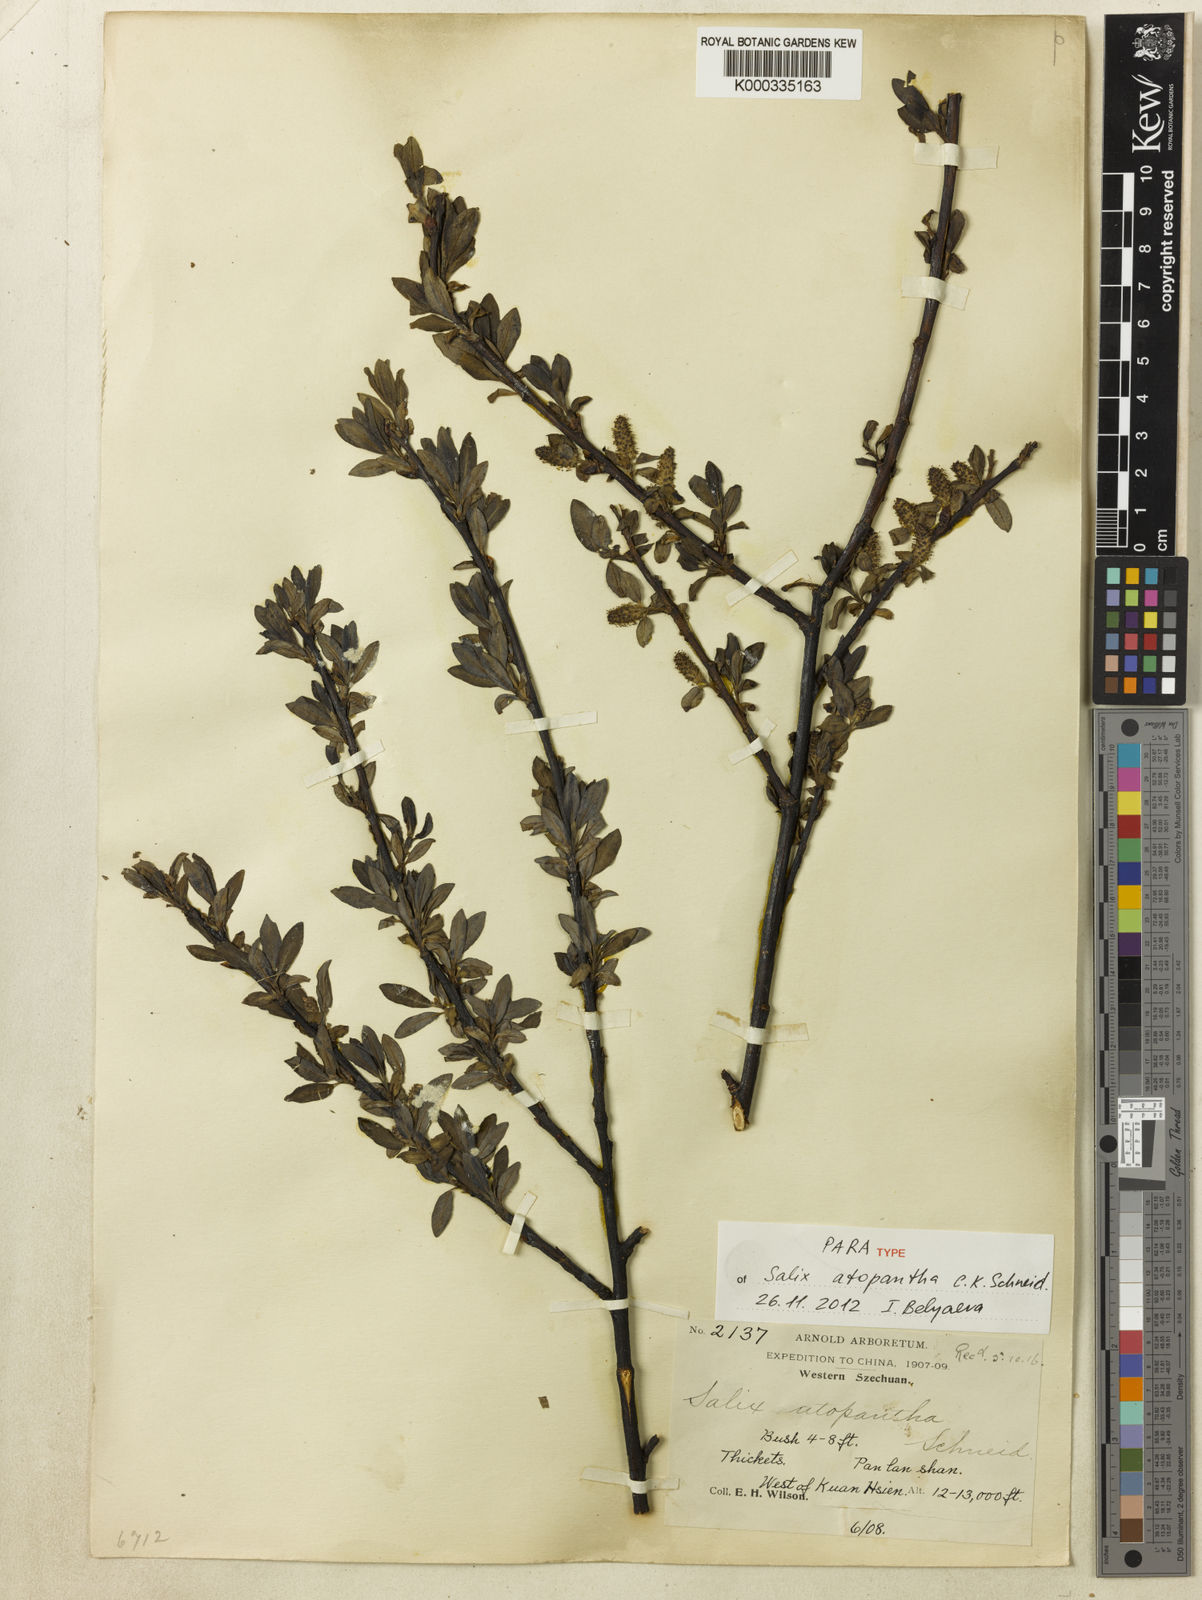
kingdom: Plantae
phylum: Tracheophyta
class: Magnoliopsida
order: Malpighiales
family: Salicaceae
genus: Salix
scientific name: Salix atopantha
